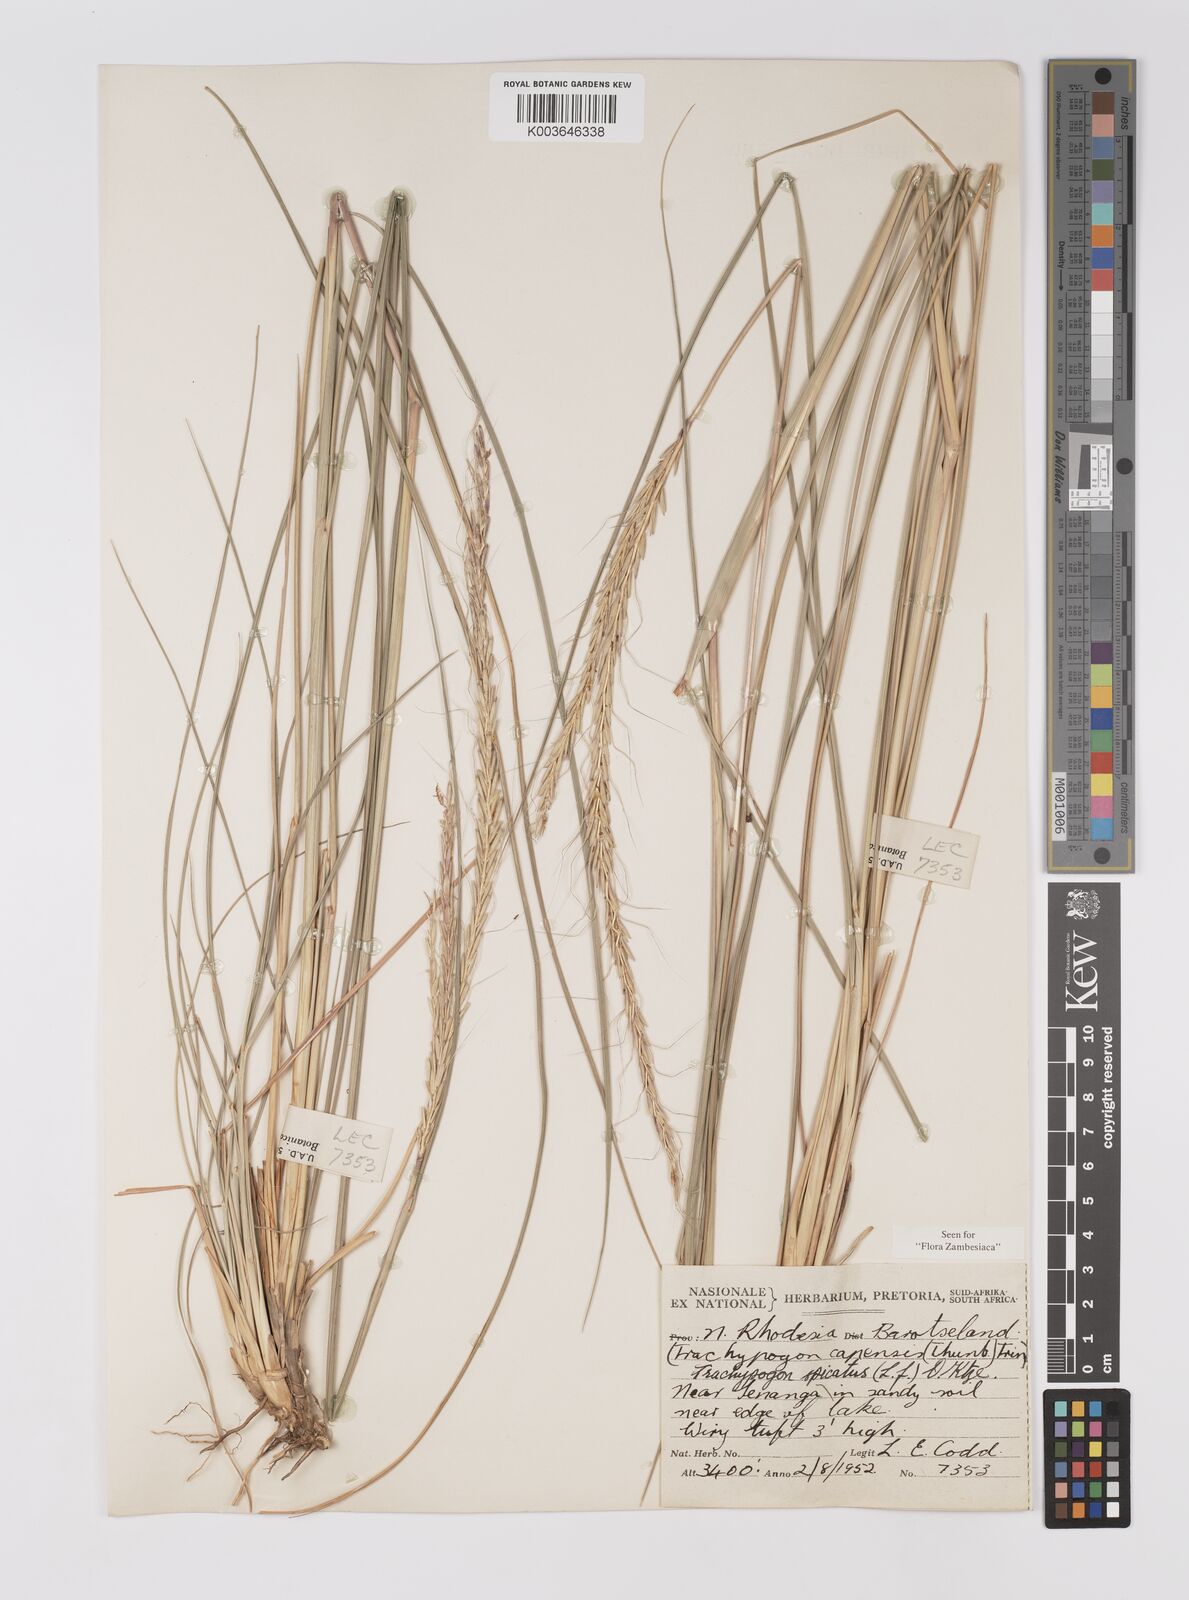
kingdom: Plantae
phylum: Tracheophyta
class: Liliopsida
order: Poales
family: Poaceae
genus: Trachypogon
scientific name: Trachypogon spicatus
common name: Crinkle-awn
